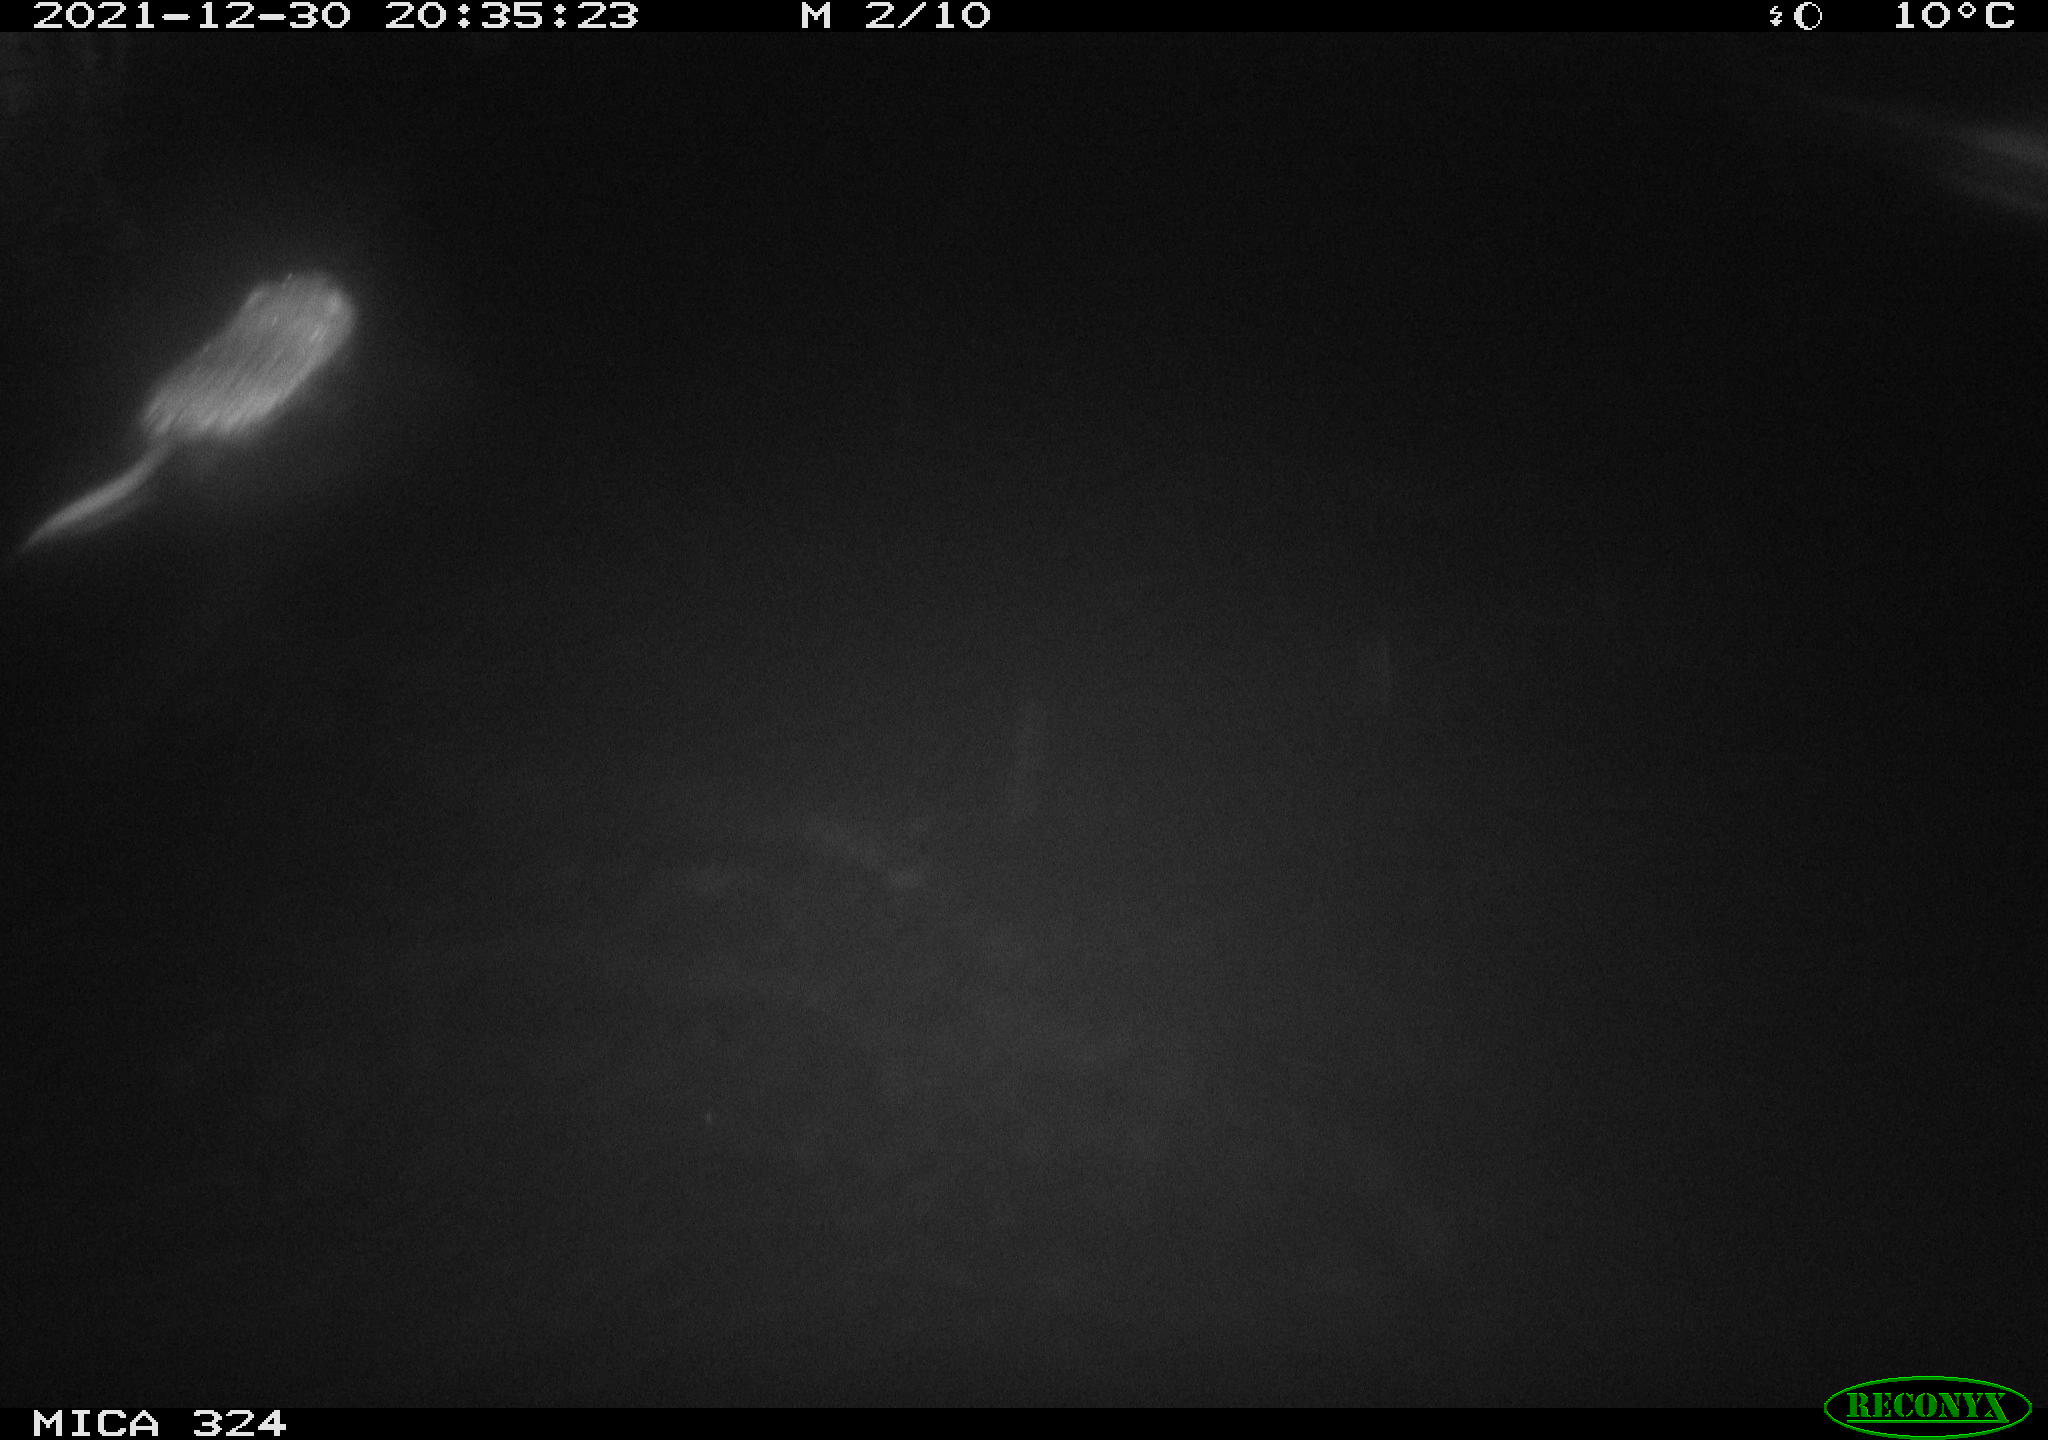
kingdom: Animalia
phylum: Chordata
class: Mammalia
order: Rodentia
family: Cricetidae
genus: Ondatra
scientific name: Ondatra zibethicus
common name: Muskrat
